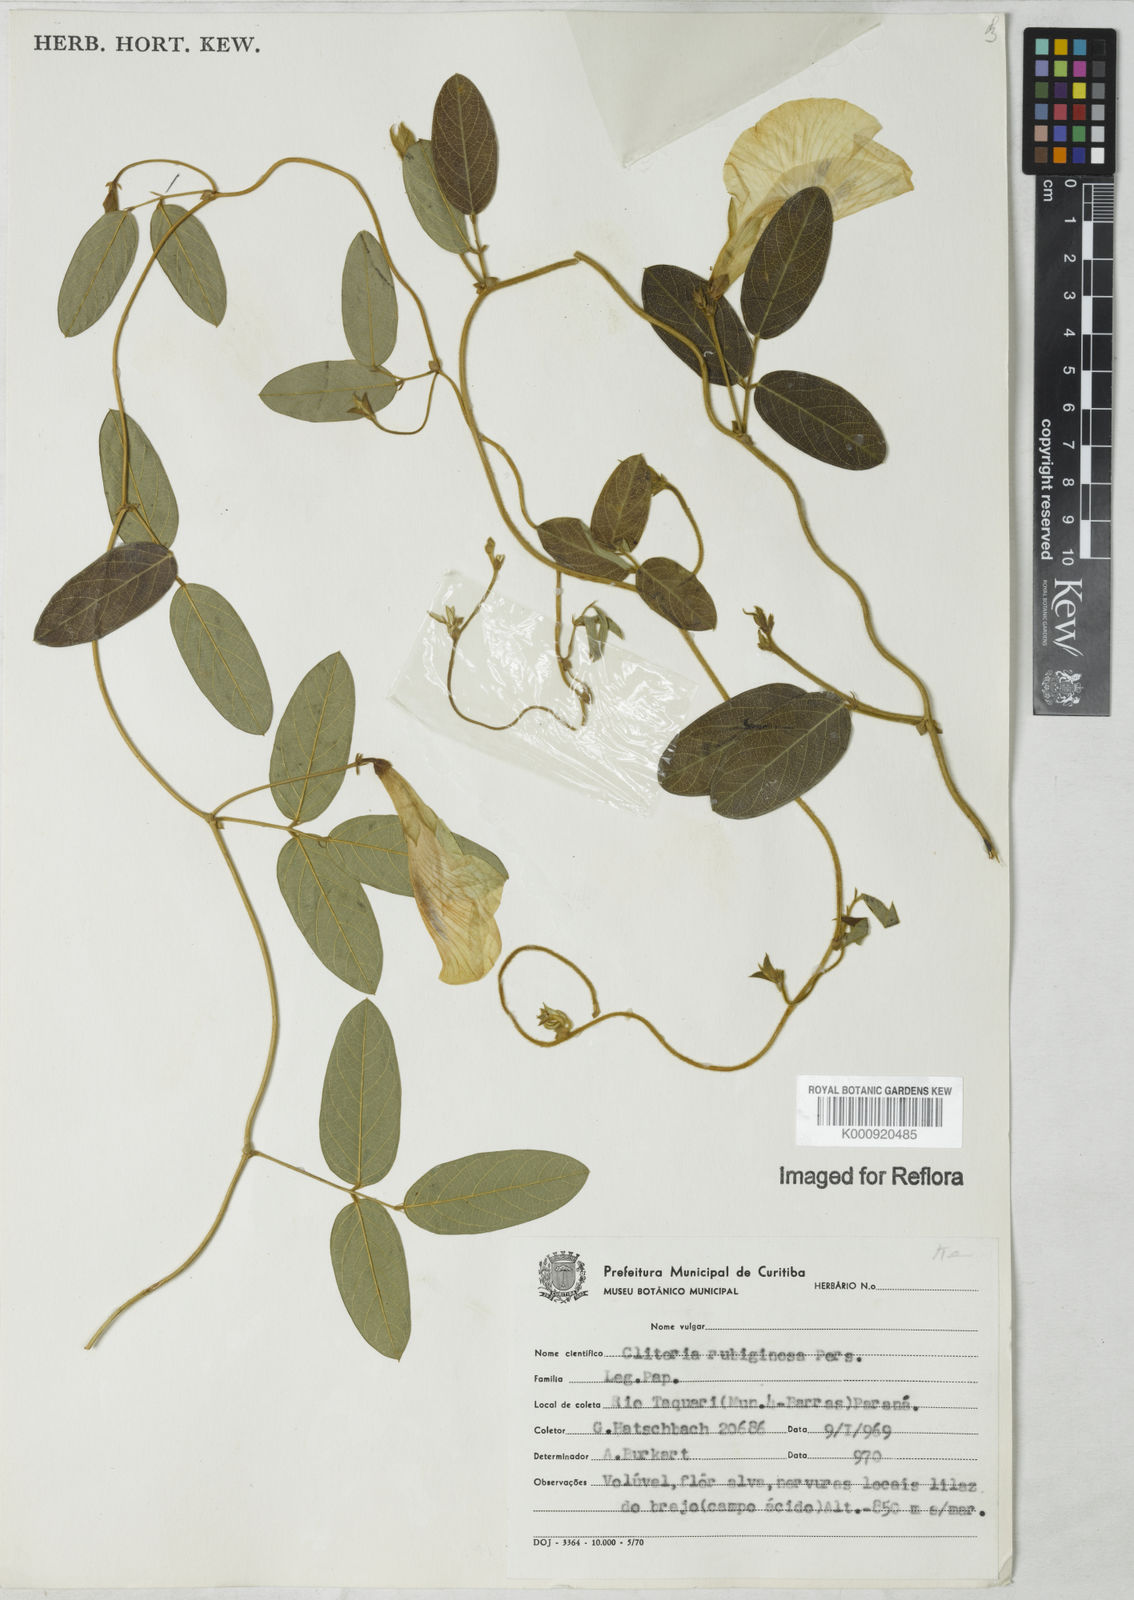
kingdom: Plantae
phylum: Tracheophyta
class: Magnoliopsida
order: Fabales
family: Fabaceae
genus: Clitoria
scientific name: Clitoria
